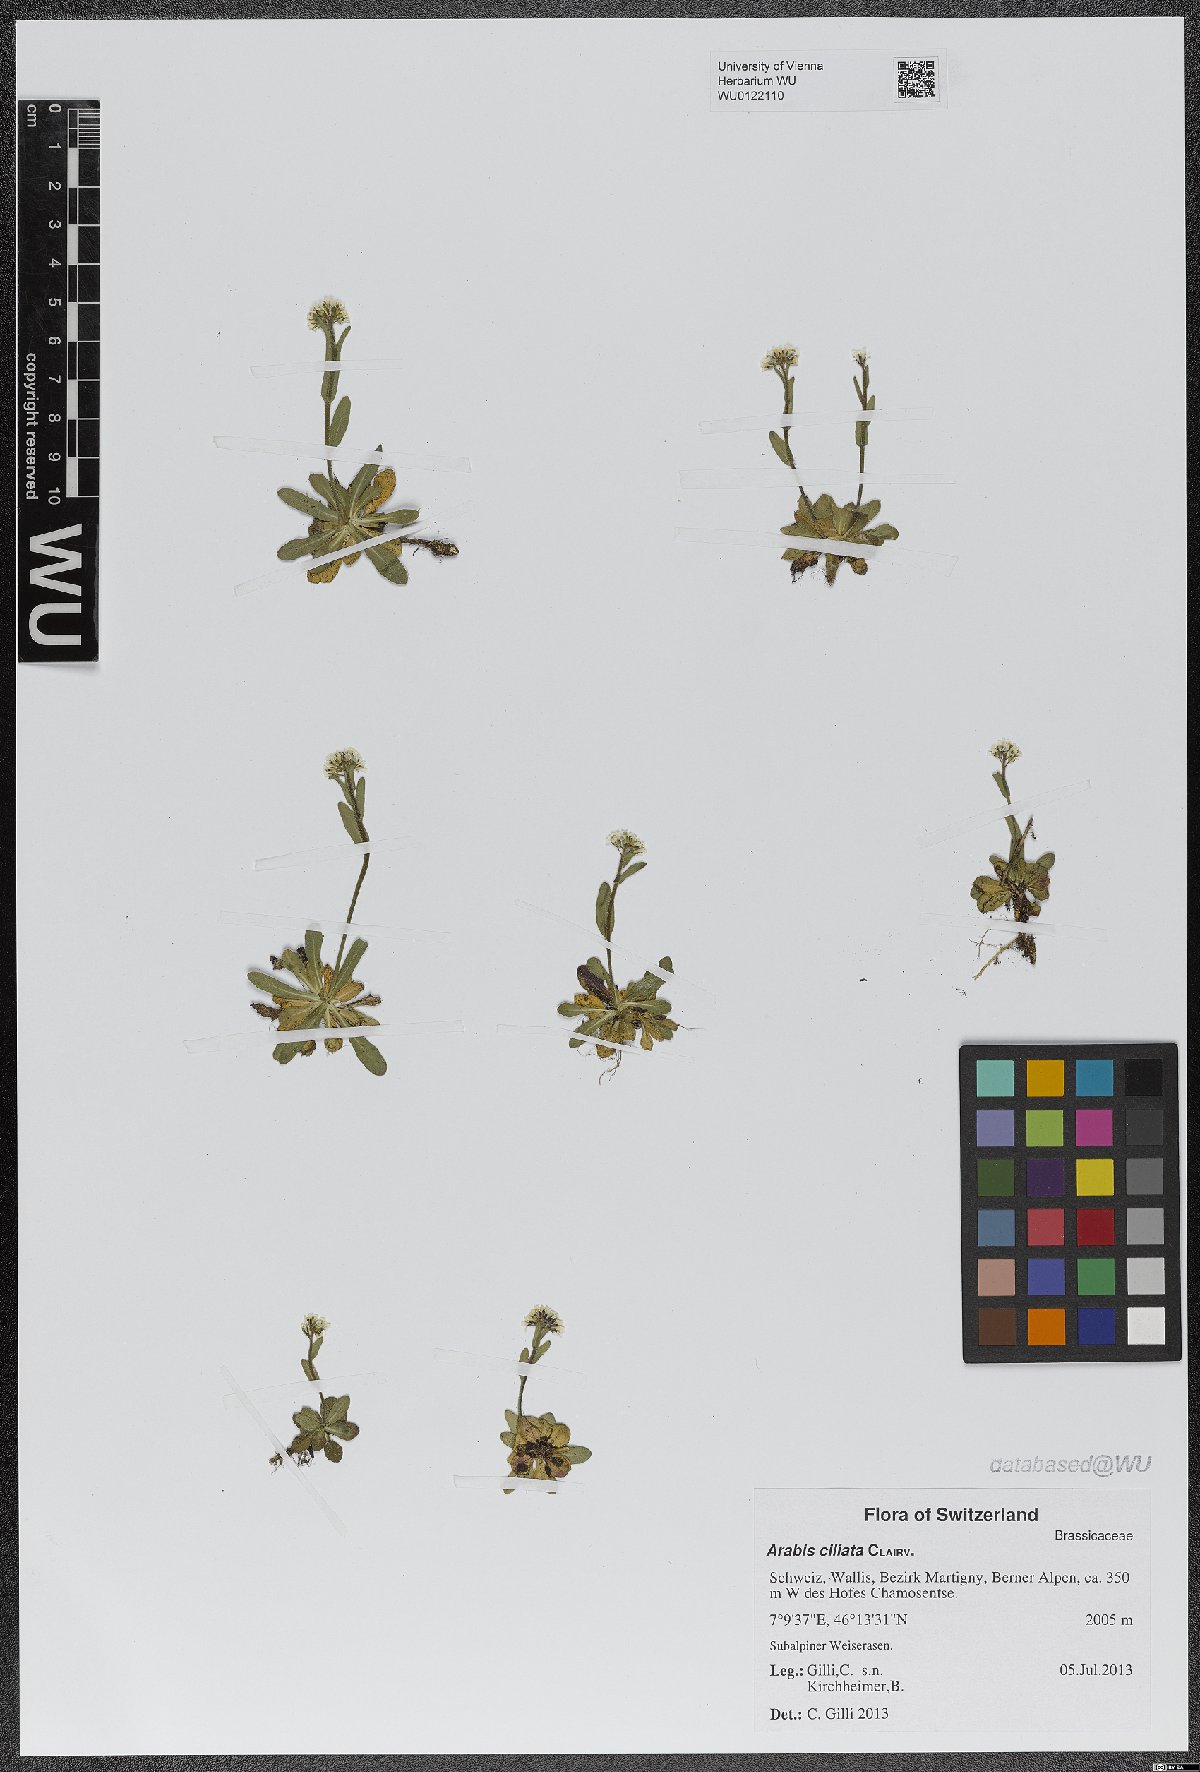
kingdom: Plantae
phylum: Tracheophyta
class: Magnoliopsida
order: Brassicales
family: Brassicaceae
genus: Arabis
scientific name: Arabis ciliata
